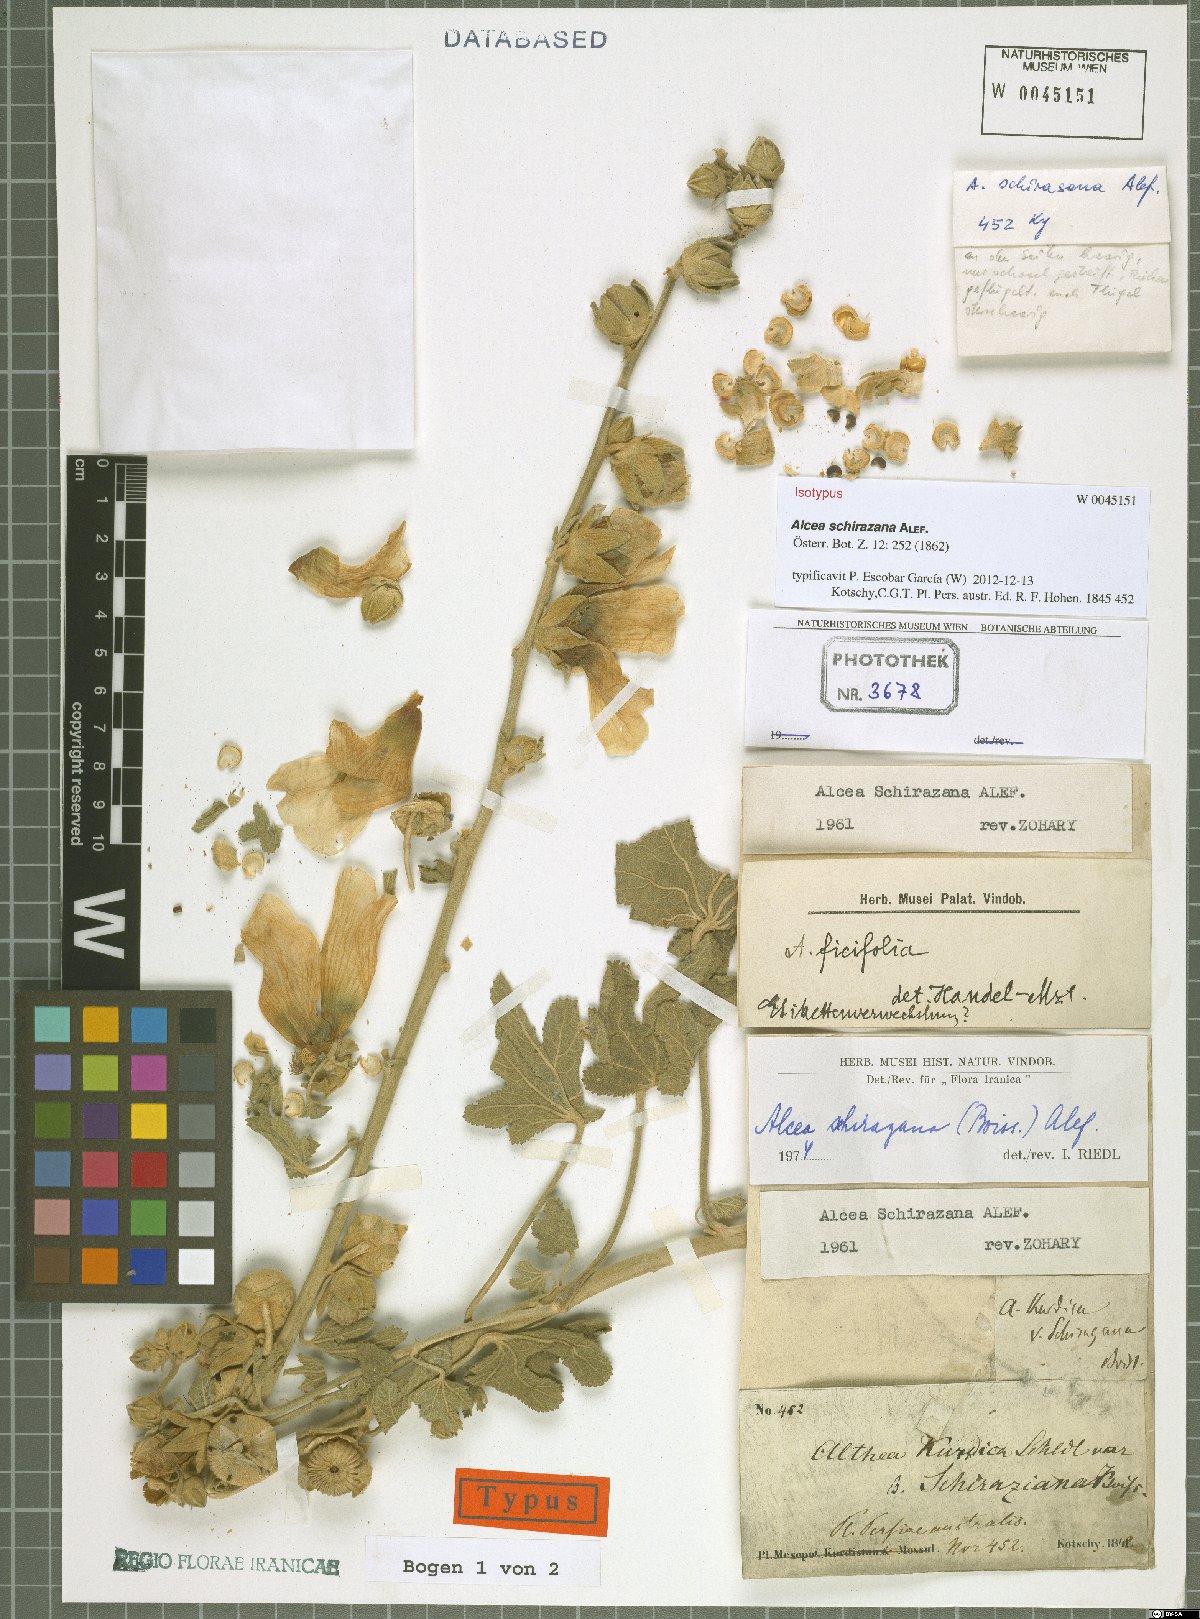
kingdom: Plantae
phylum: Tracheophyta
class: Magnoliopsida
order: Malvales
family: Malvaceae
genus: Alcea
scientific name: Alcea schirazana
